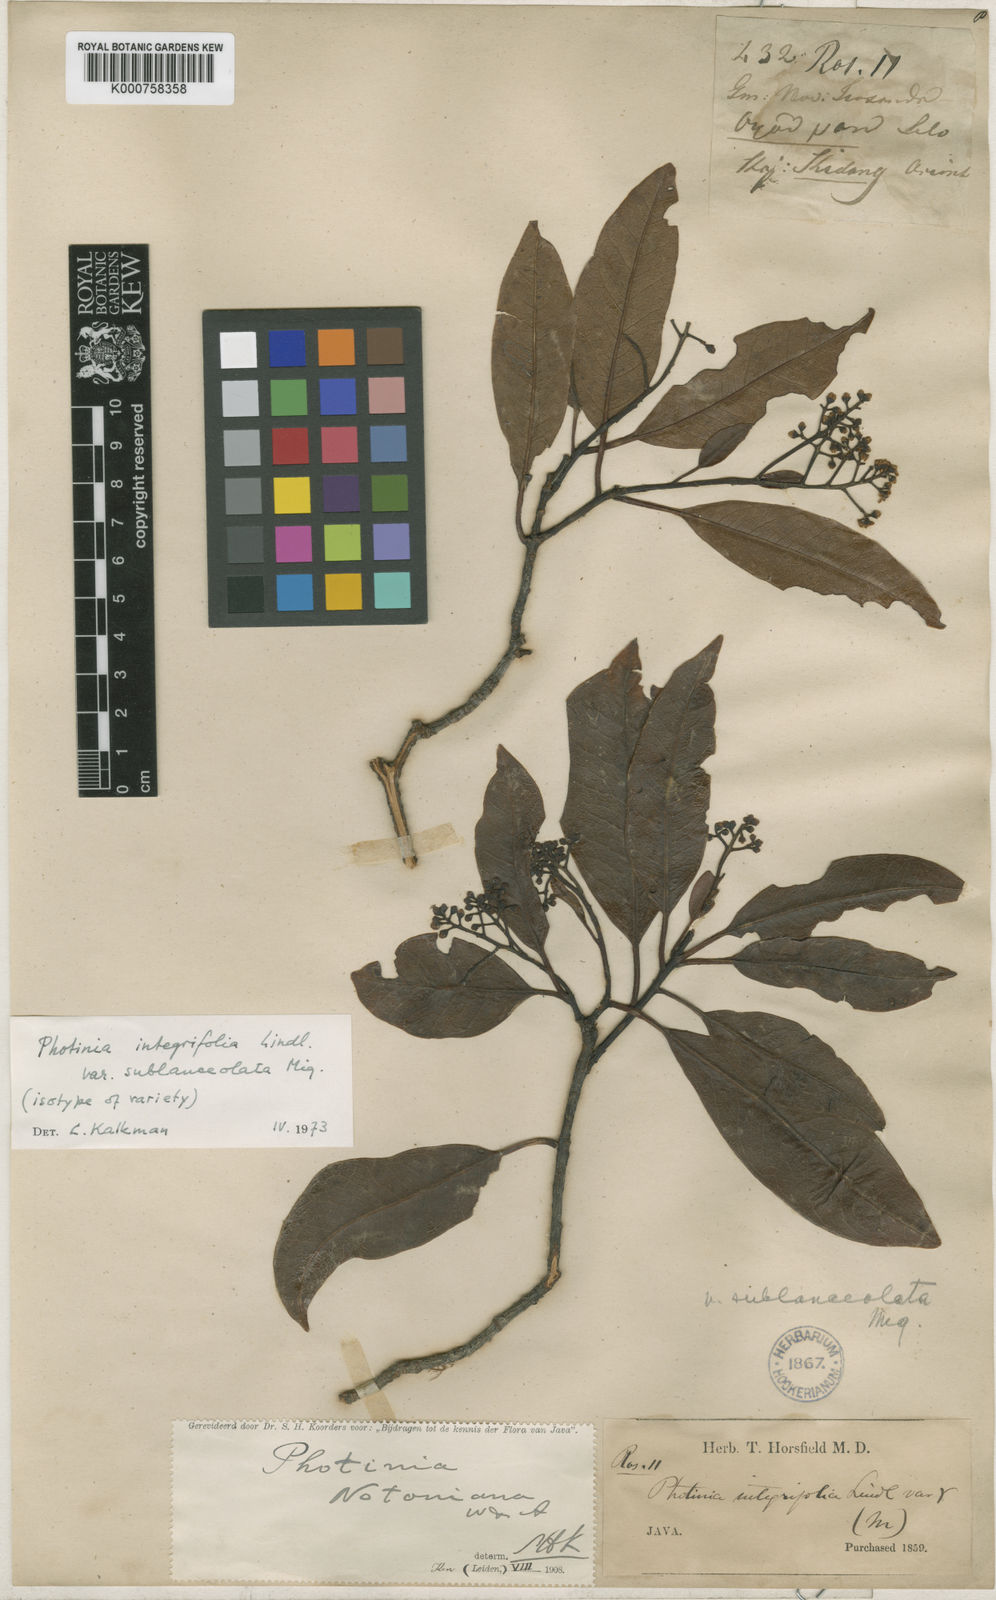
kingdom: Plantae
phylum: Tracheophyta
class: Magnoliopsida
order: Rosales
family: Rosaceae
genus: Photinia
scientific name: Photinia integrifolia
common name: Himalayan chokeberry
